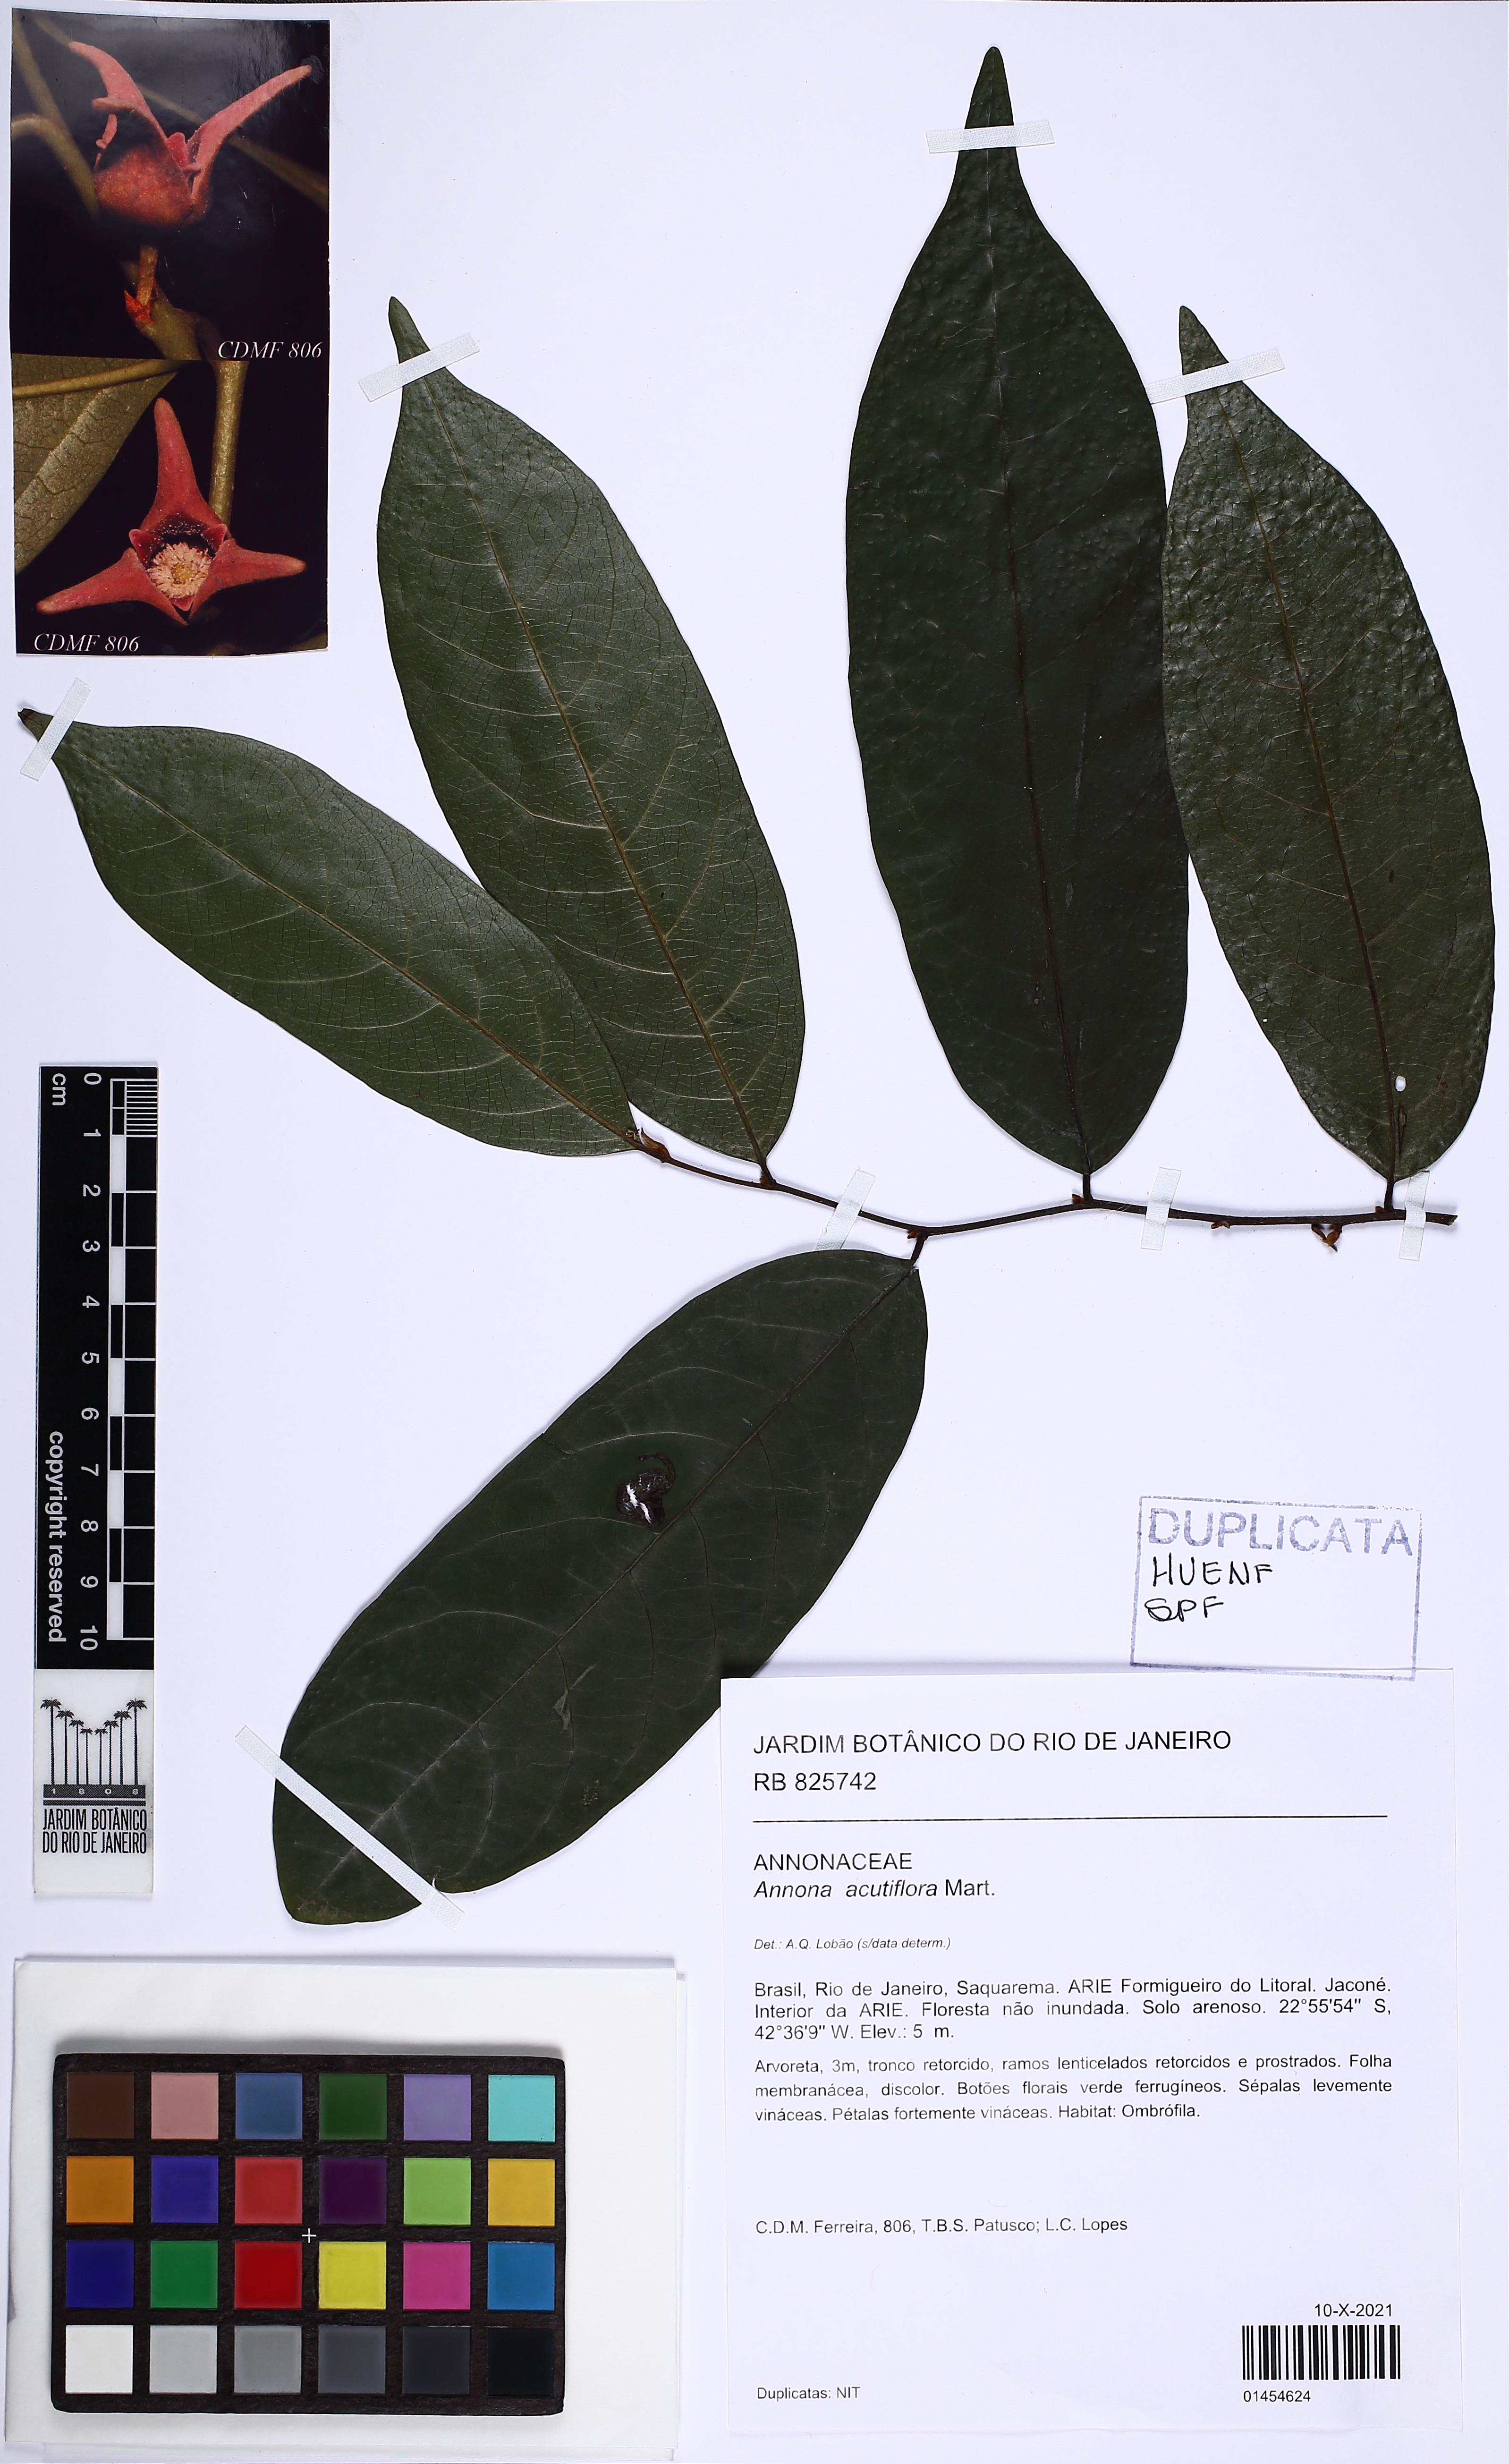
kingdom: Plantae
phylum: Tracheophyta
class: Magnoliopsida
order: Magnoliales
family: Annonaceae
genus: Annona
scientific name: Annona acutiflora
